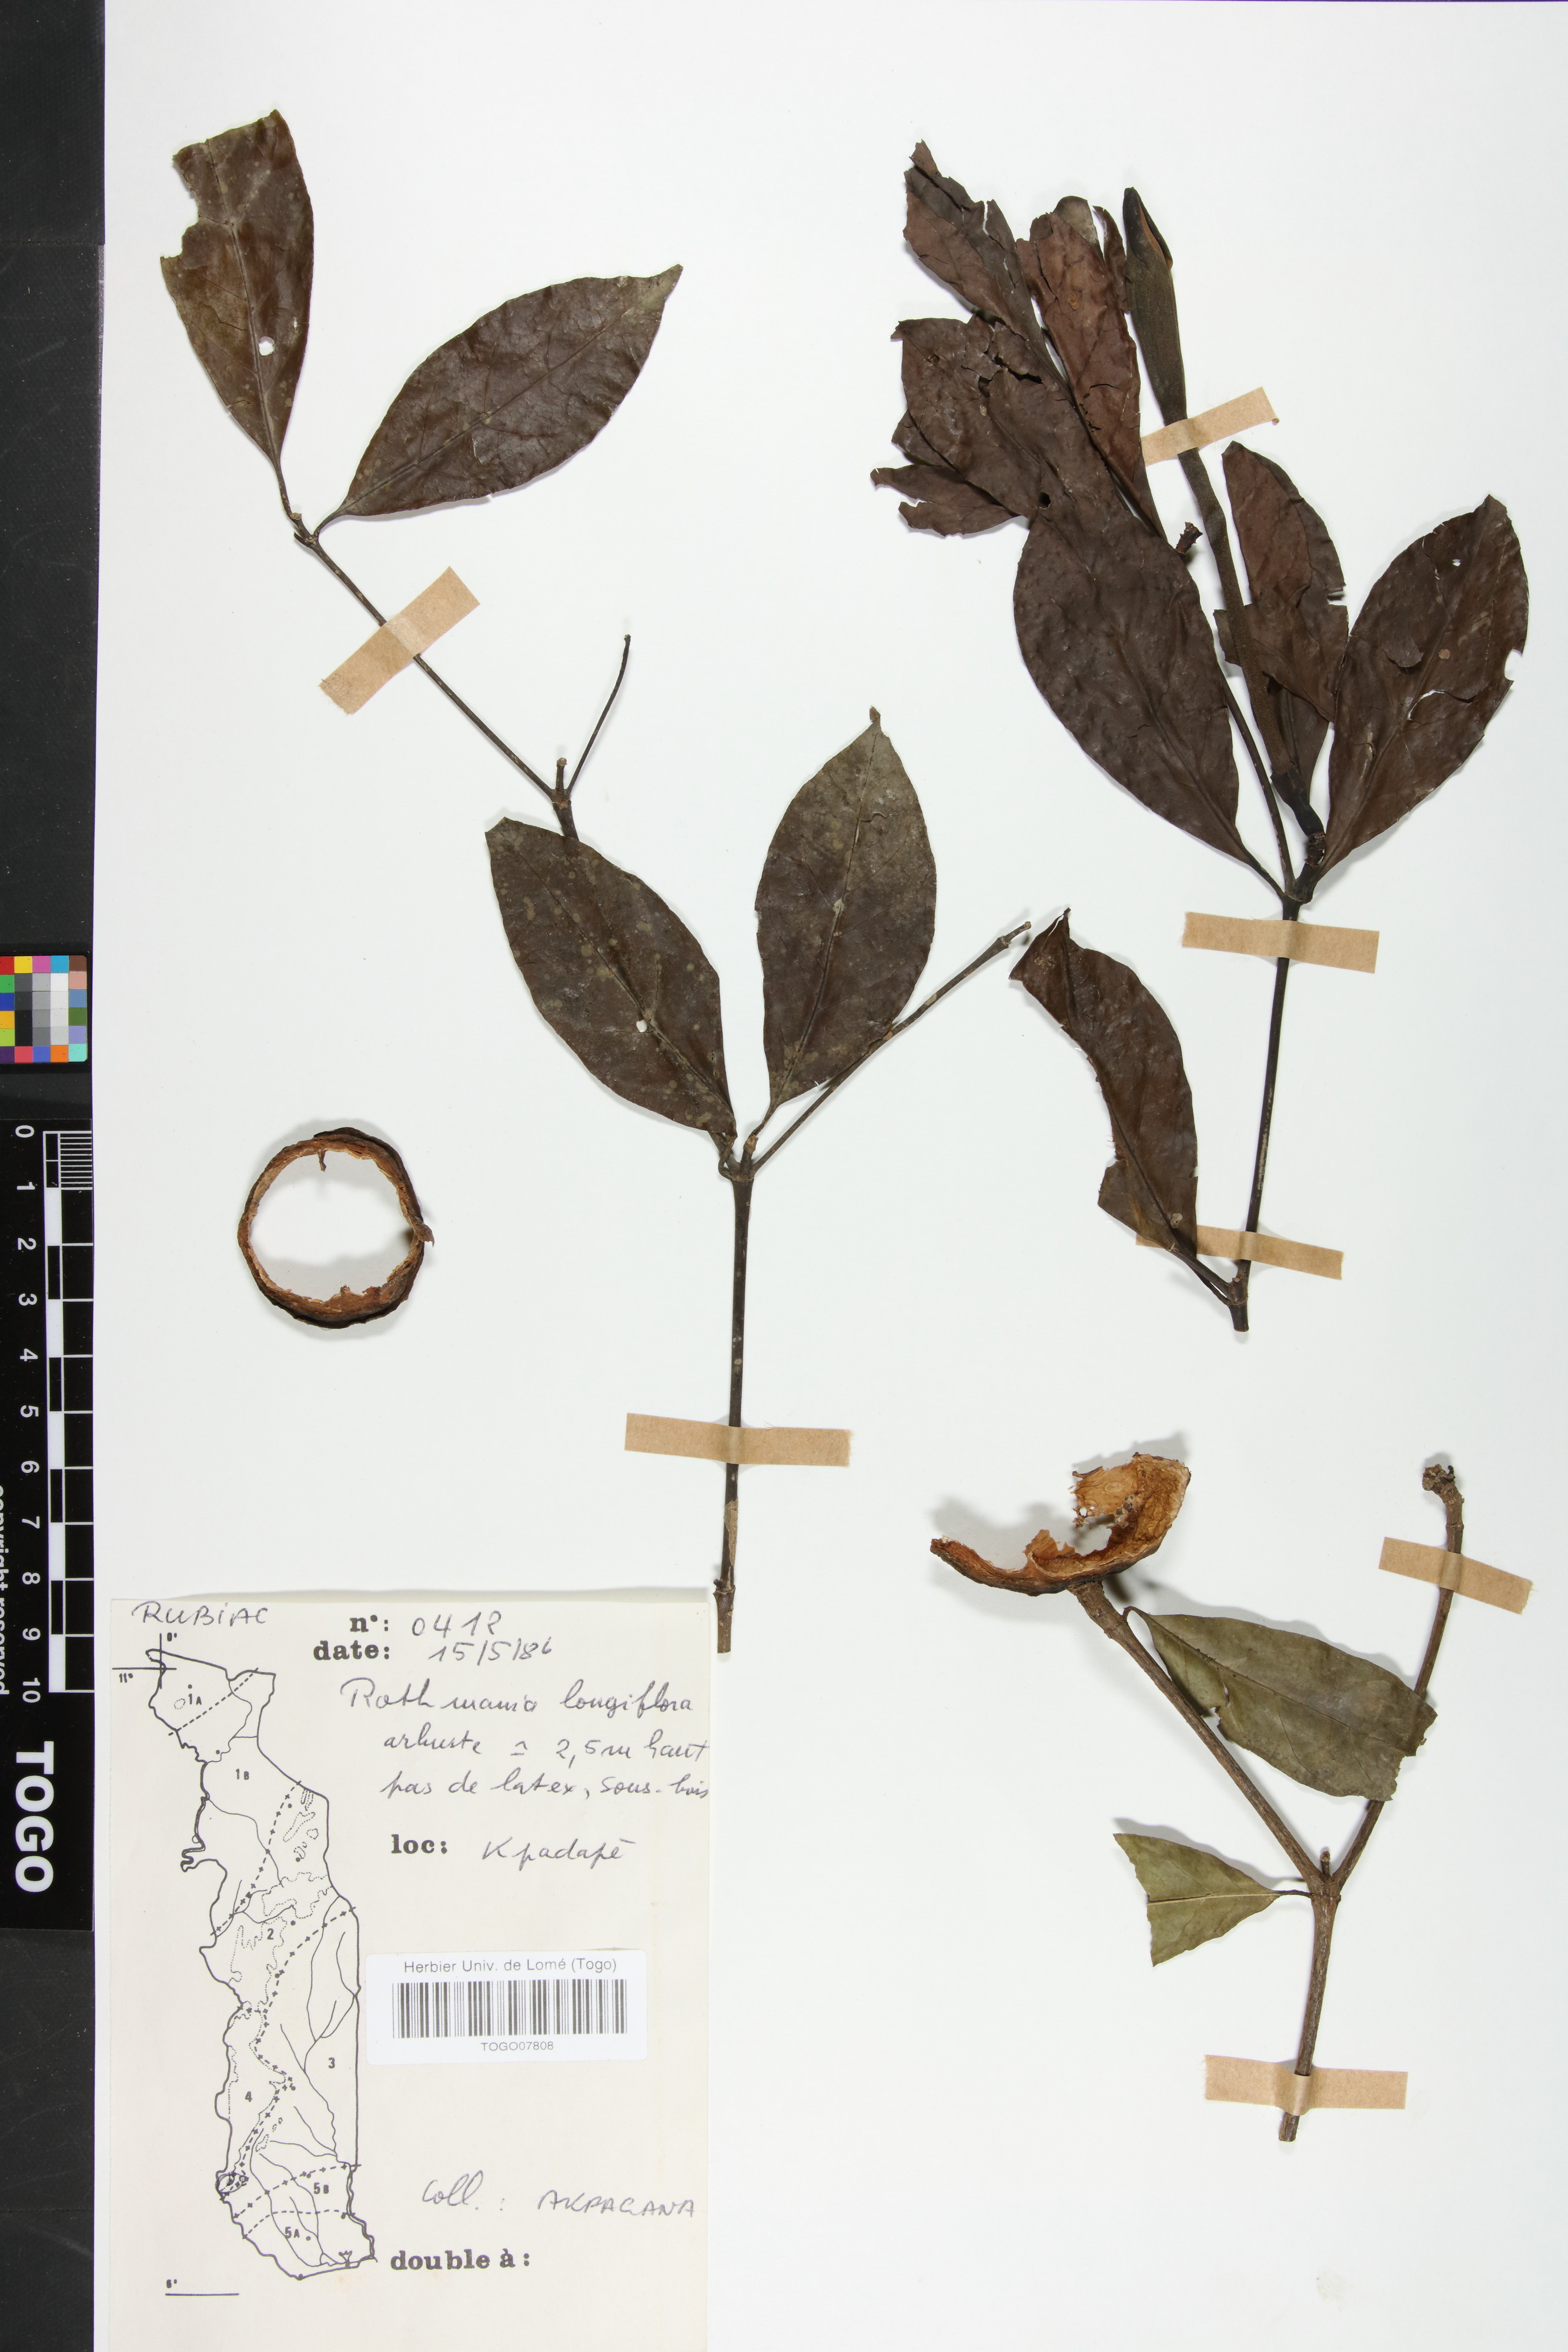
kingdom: Plantae
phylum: Tracheophyta
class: Magnoliopsida
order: Gentianales
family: Rubiaceae
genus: Rothmannia
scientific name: Rothmannia longiflora
